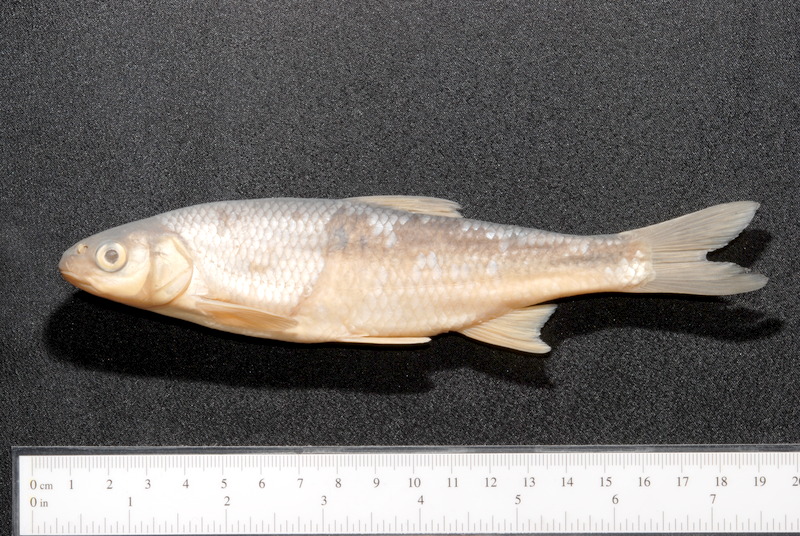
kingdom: Animalia
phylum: Chordata
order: Cypriniformes
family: Cyprinidae
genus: Leuciscus
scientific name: Leuciscus leuciscus
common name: Dace
